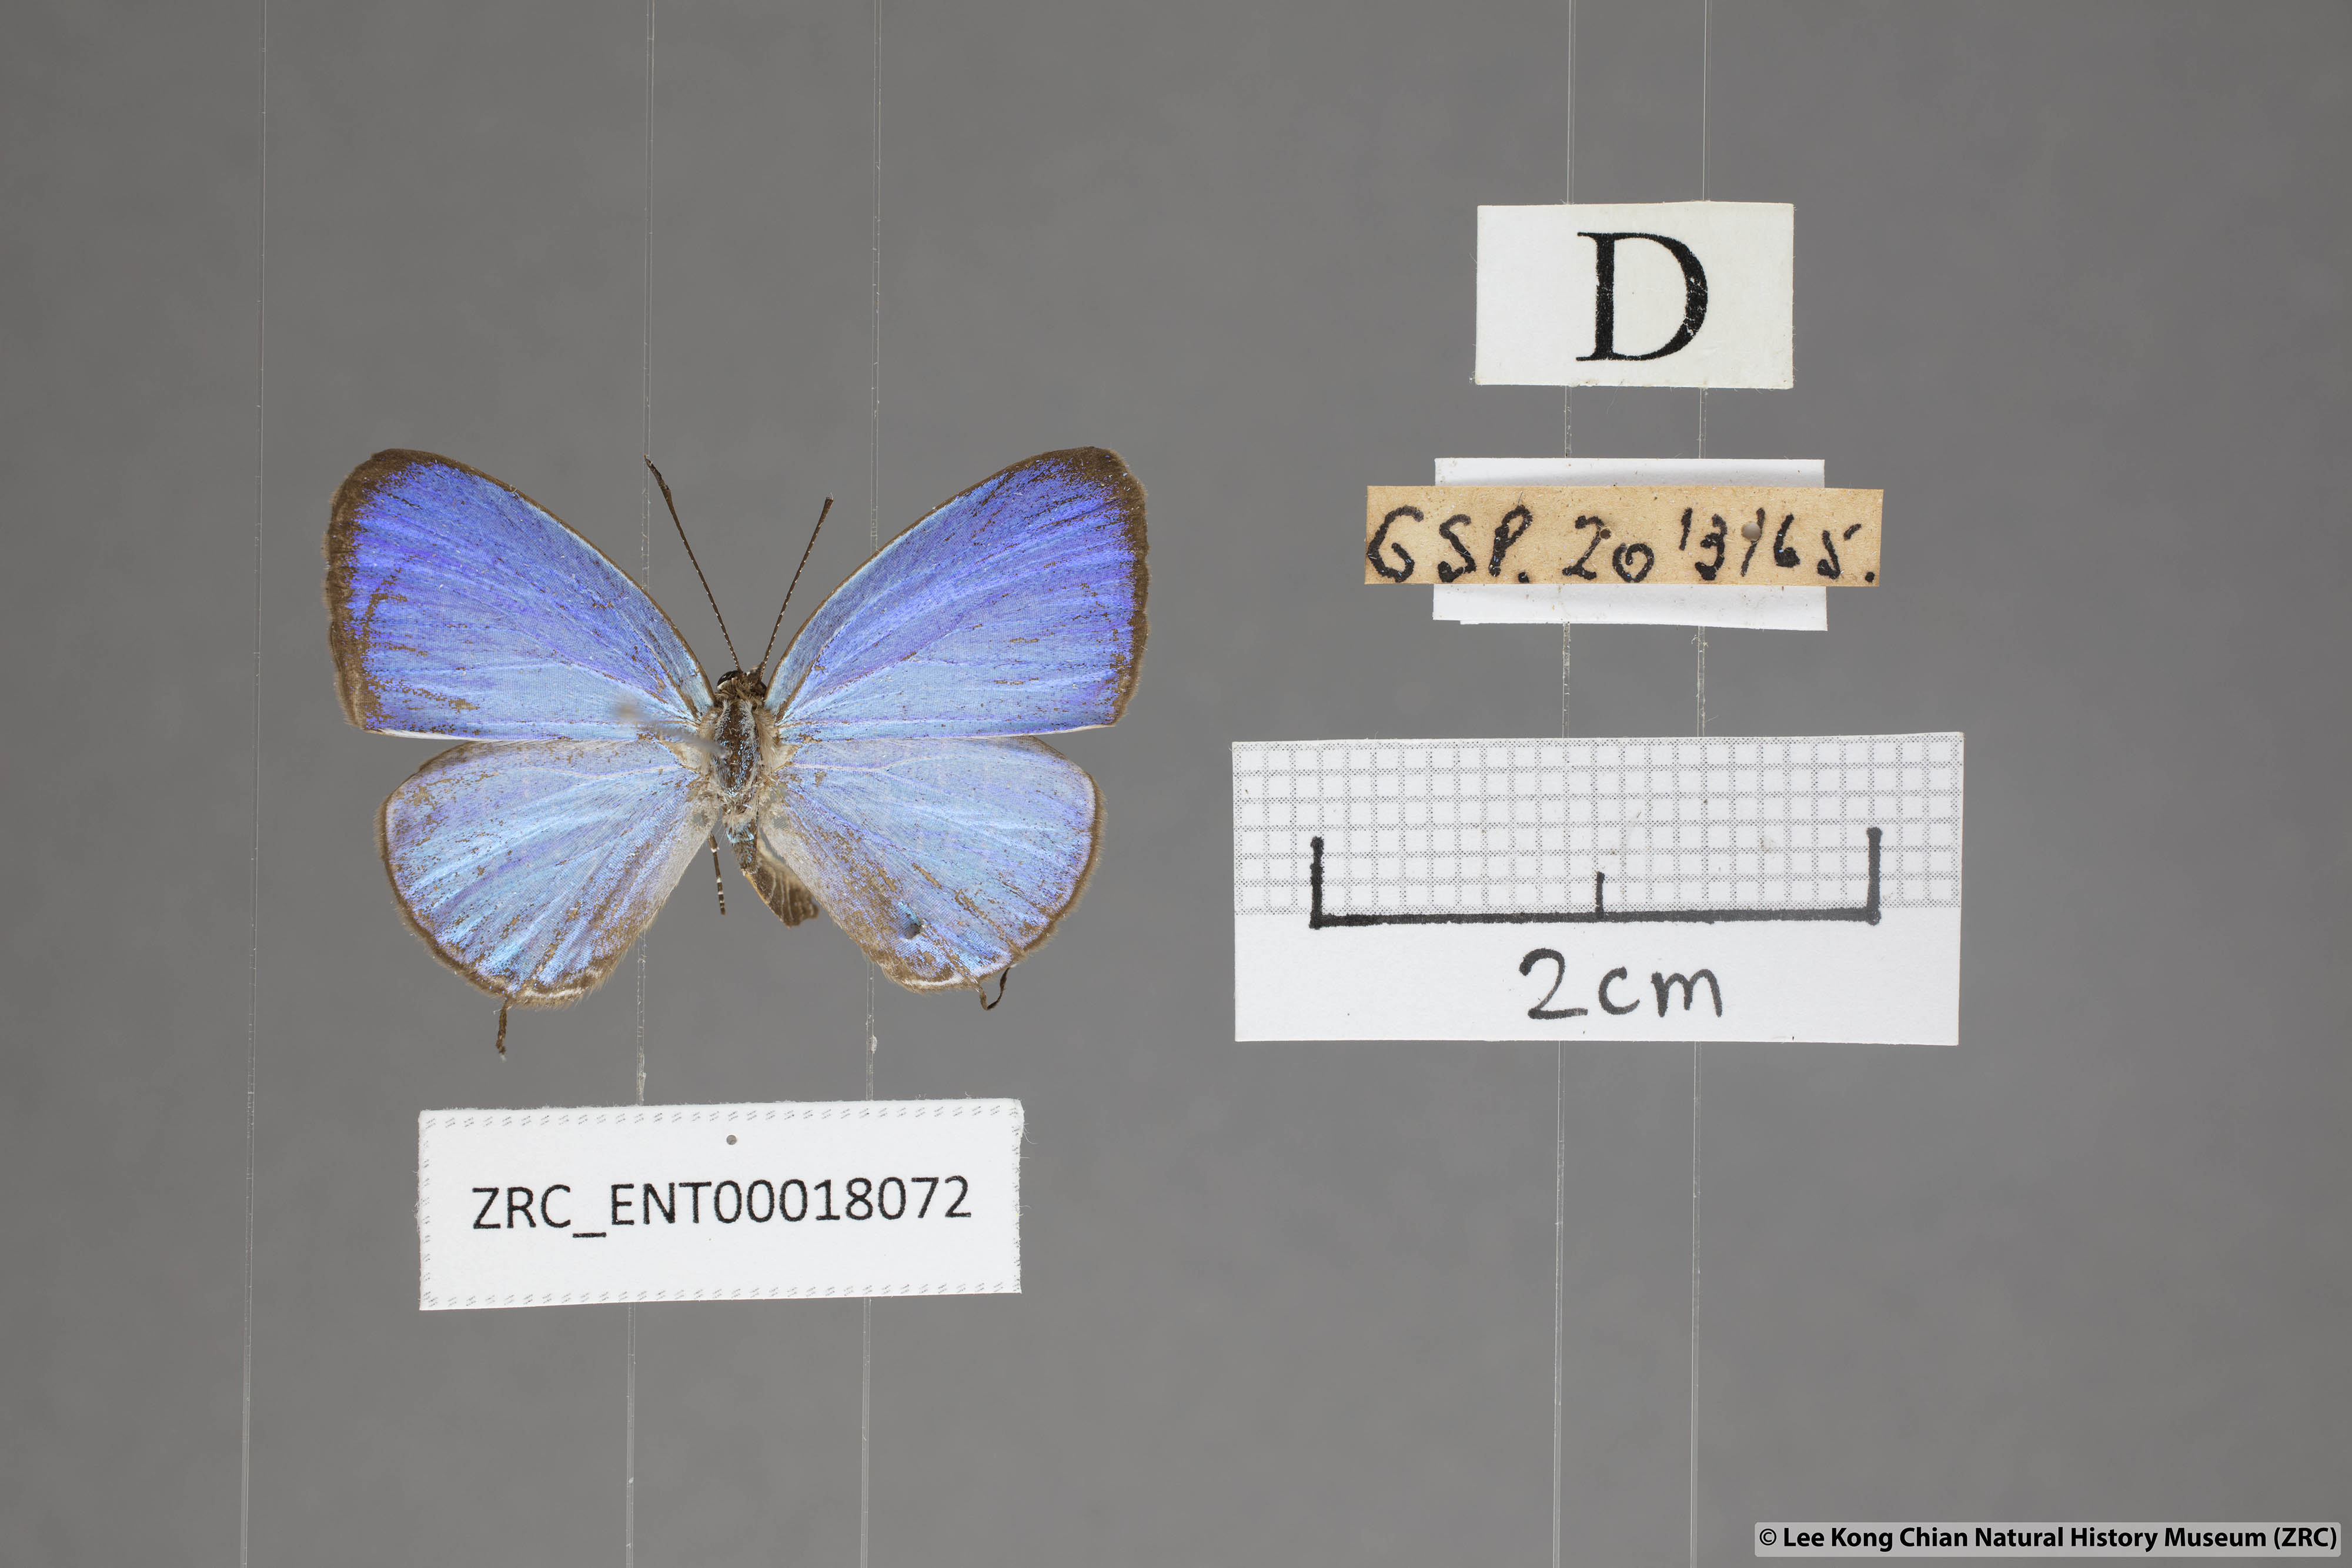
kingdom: Animalia
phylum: Arthropoda
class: Insecta
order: Lepidoptera
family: Lycaenidae
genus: Jamides
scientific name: Jamides caerulea
